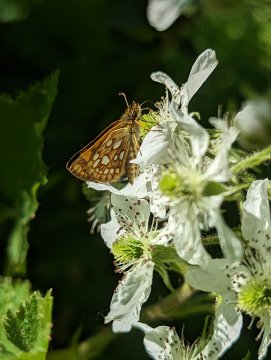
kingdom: Animalia
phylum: Arthropoda
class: Insecta
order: Lepidoptera
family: Hesperiidae
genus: Carterocephalus
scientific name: Carterocephalus palaemon
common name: Chequered Skipper
